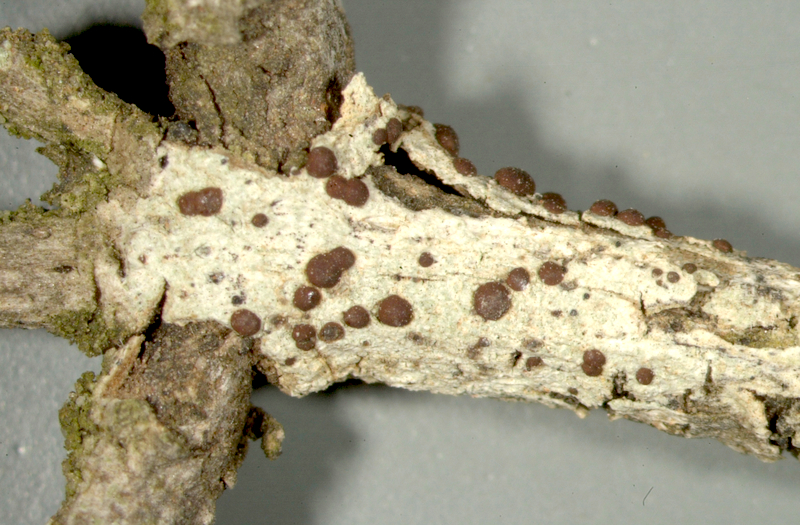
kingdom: Fungi
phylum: Ascomycota
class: Arthoniomycetes
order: Arthoniales
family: Roccellaceae
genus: Enterographa
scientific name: Enterographa
